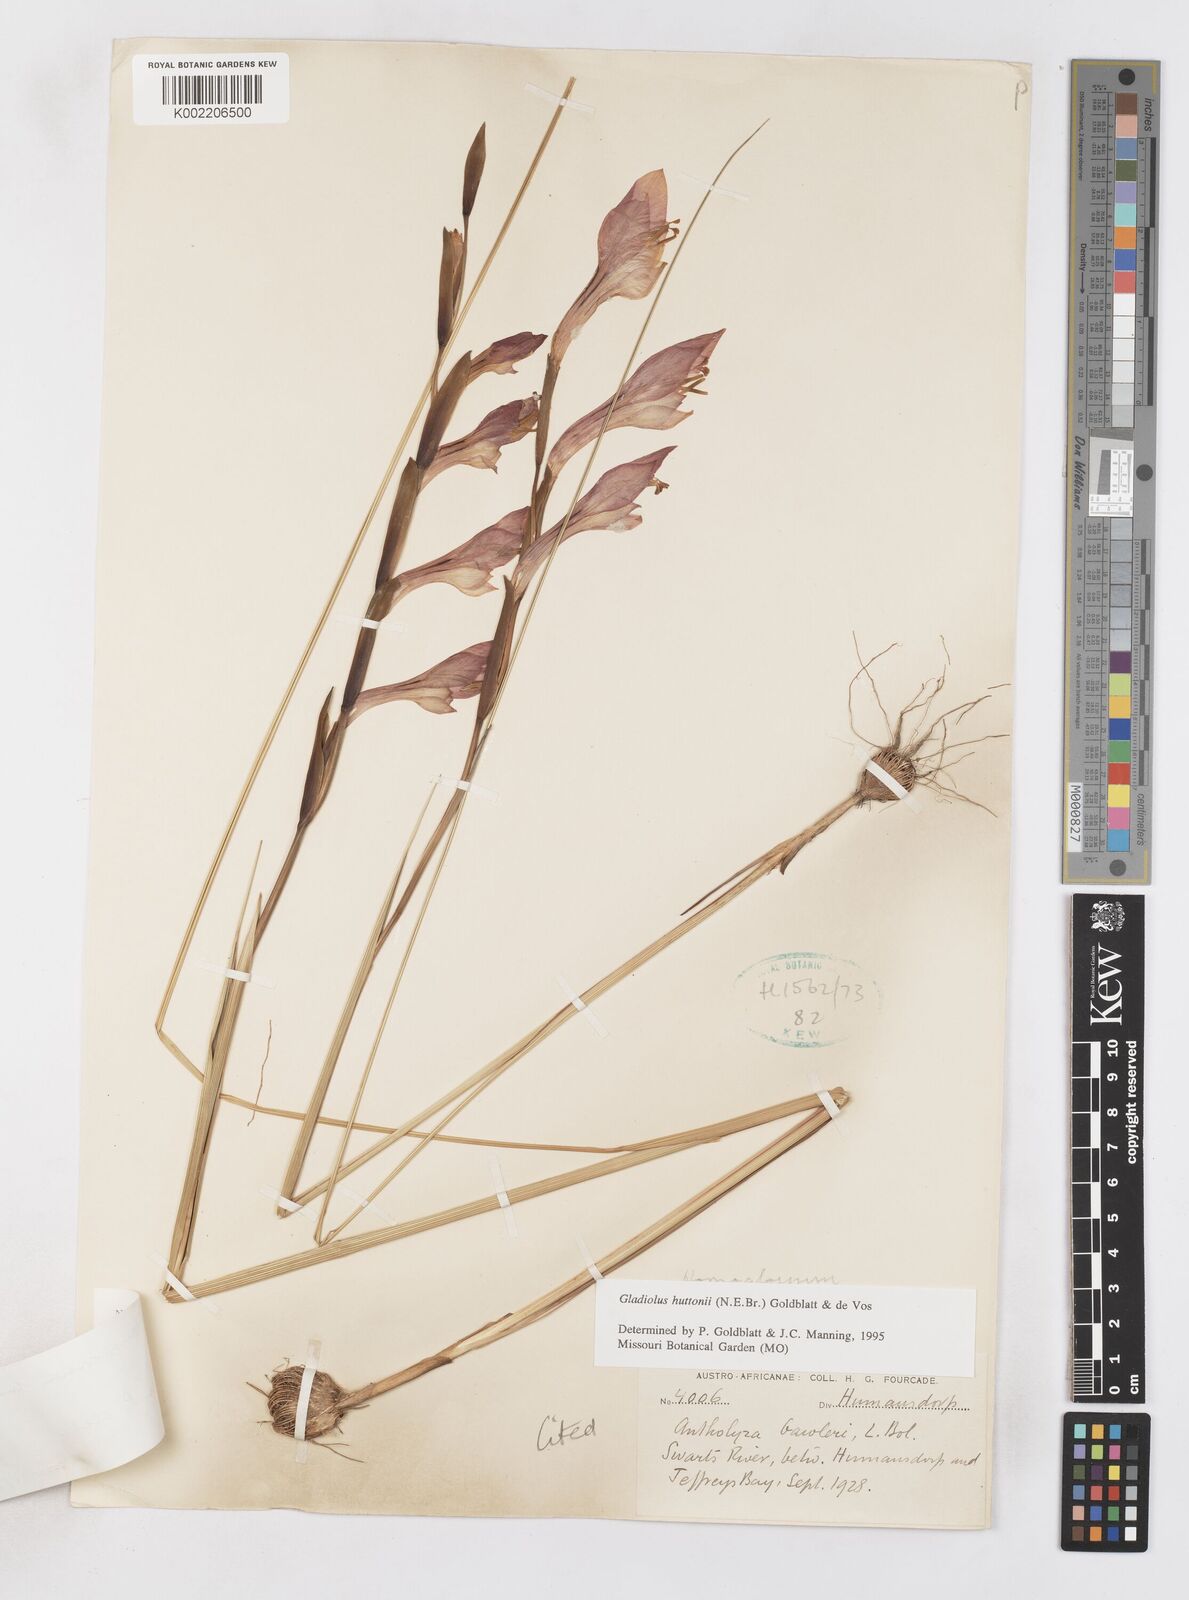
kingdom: Plantae
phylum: Tracheophyta
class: Liliopsida
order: Asparagales
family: Iridaceae
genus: Gladiolus
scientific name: Gladiolus huttonii
